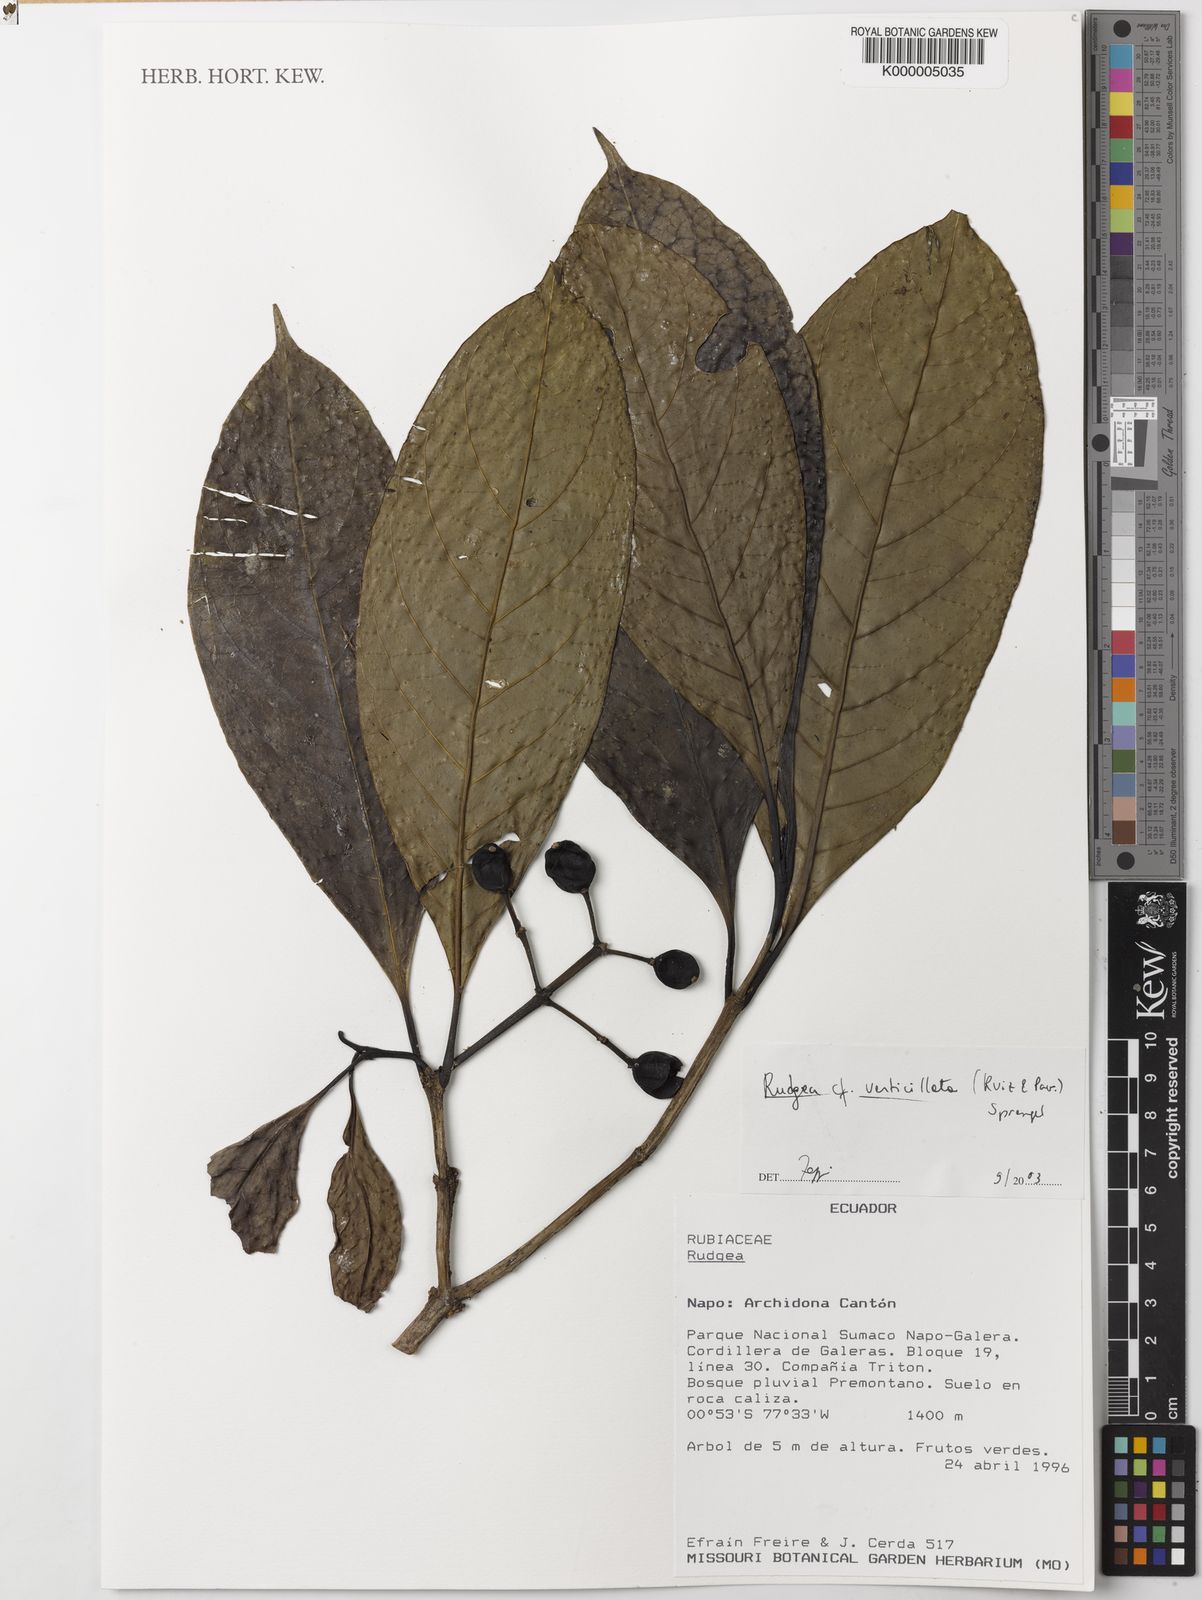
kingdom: Plantae
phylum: Tracheophyta
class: Magnoliopsida
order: Gentianales
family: Rubiaceae
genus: Rudgea
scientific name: Rudgea verticillata
